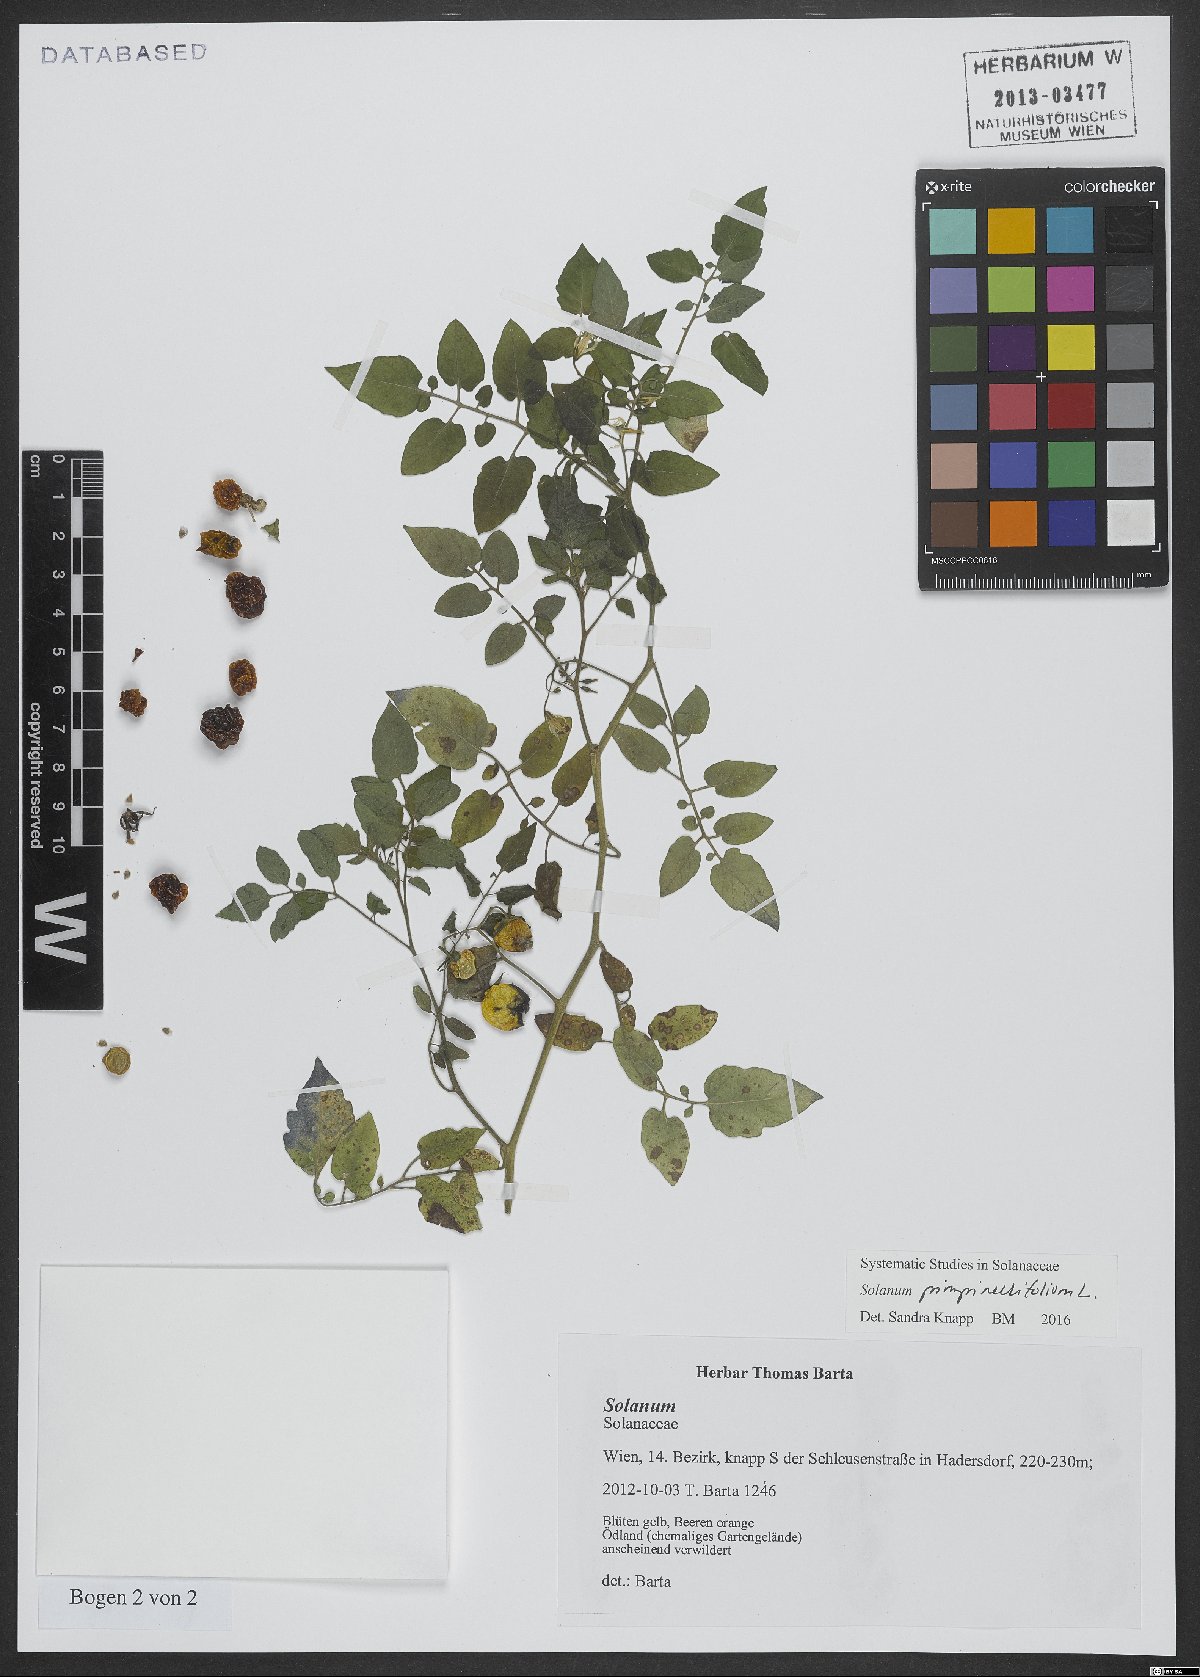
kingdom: Plantae
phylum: Tracheophyta
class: Magnoliopsida
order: Solanales
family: Solanaceae
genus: Solanum
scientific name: Solanum pimpinellifolium
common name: Currant-tomato
